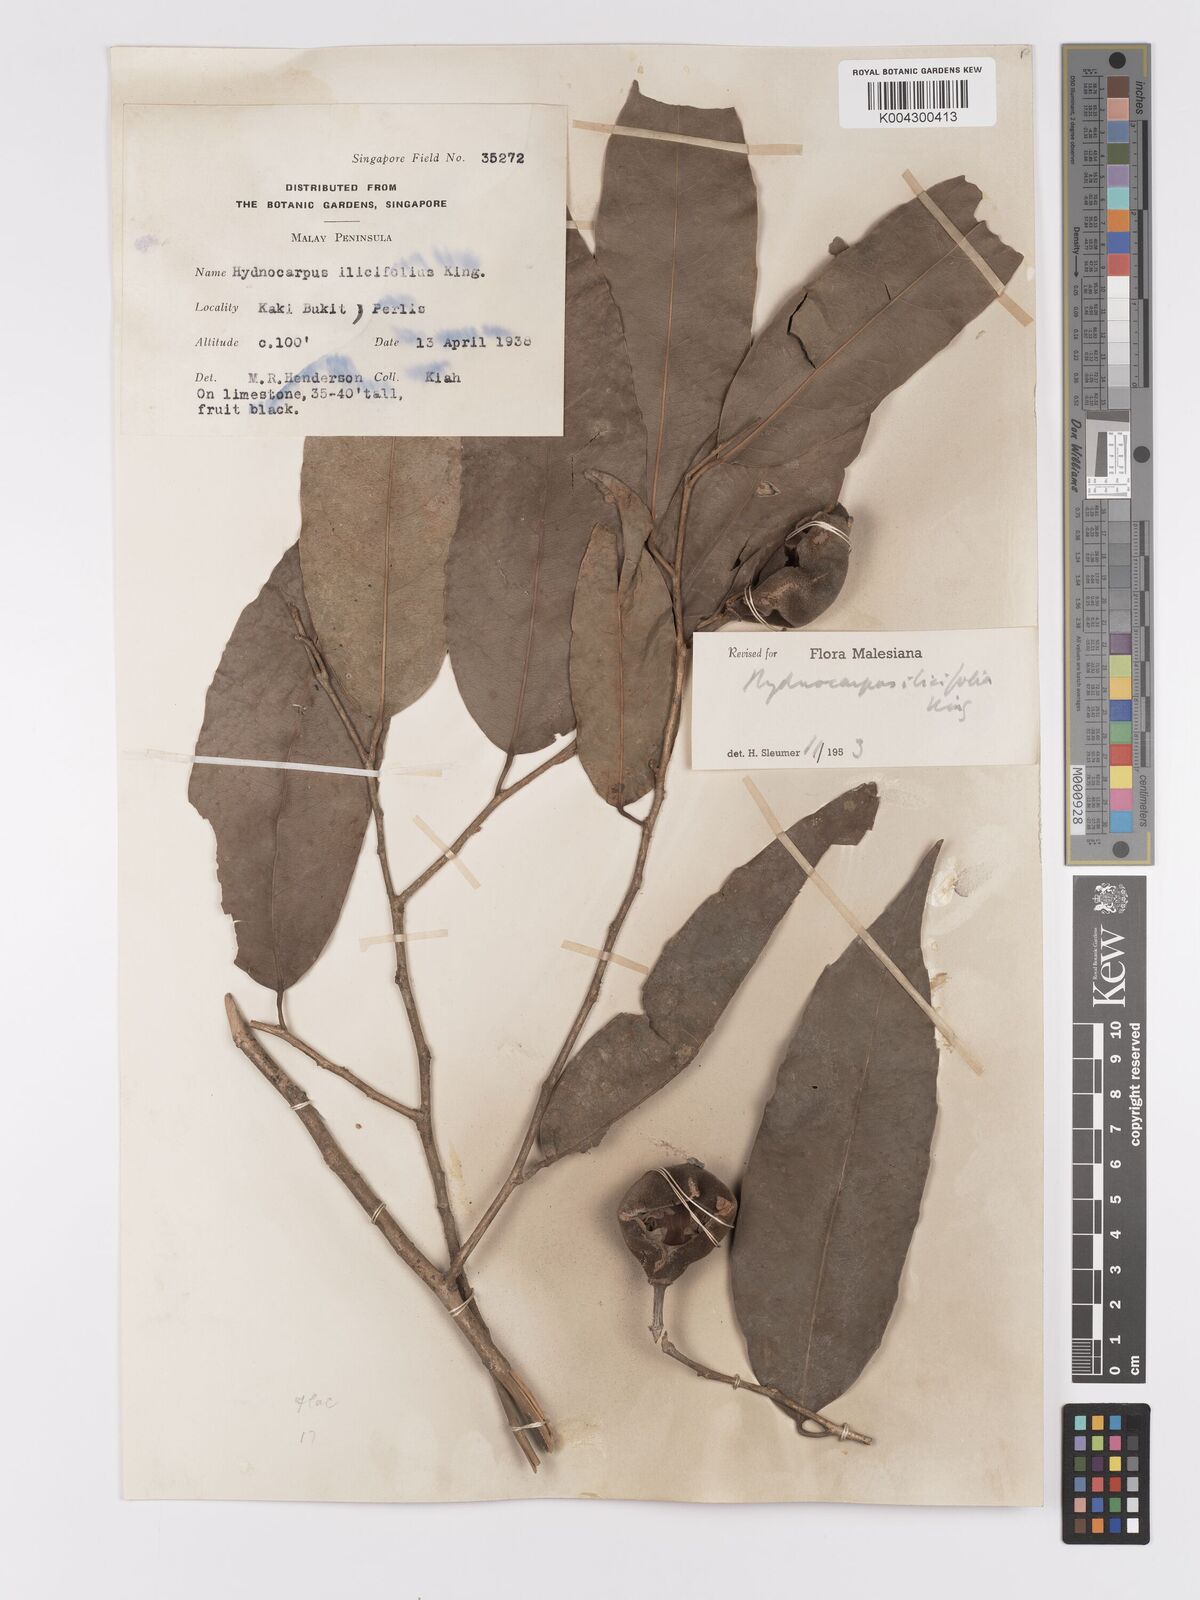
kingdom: Plantae
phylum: Tracheophyta
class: Magnoliopsida
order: Malpighiales
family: Achariaceae
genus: Hydnocarpus
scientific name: Hydnocarpus ilicifolius
